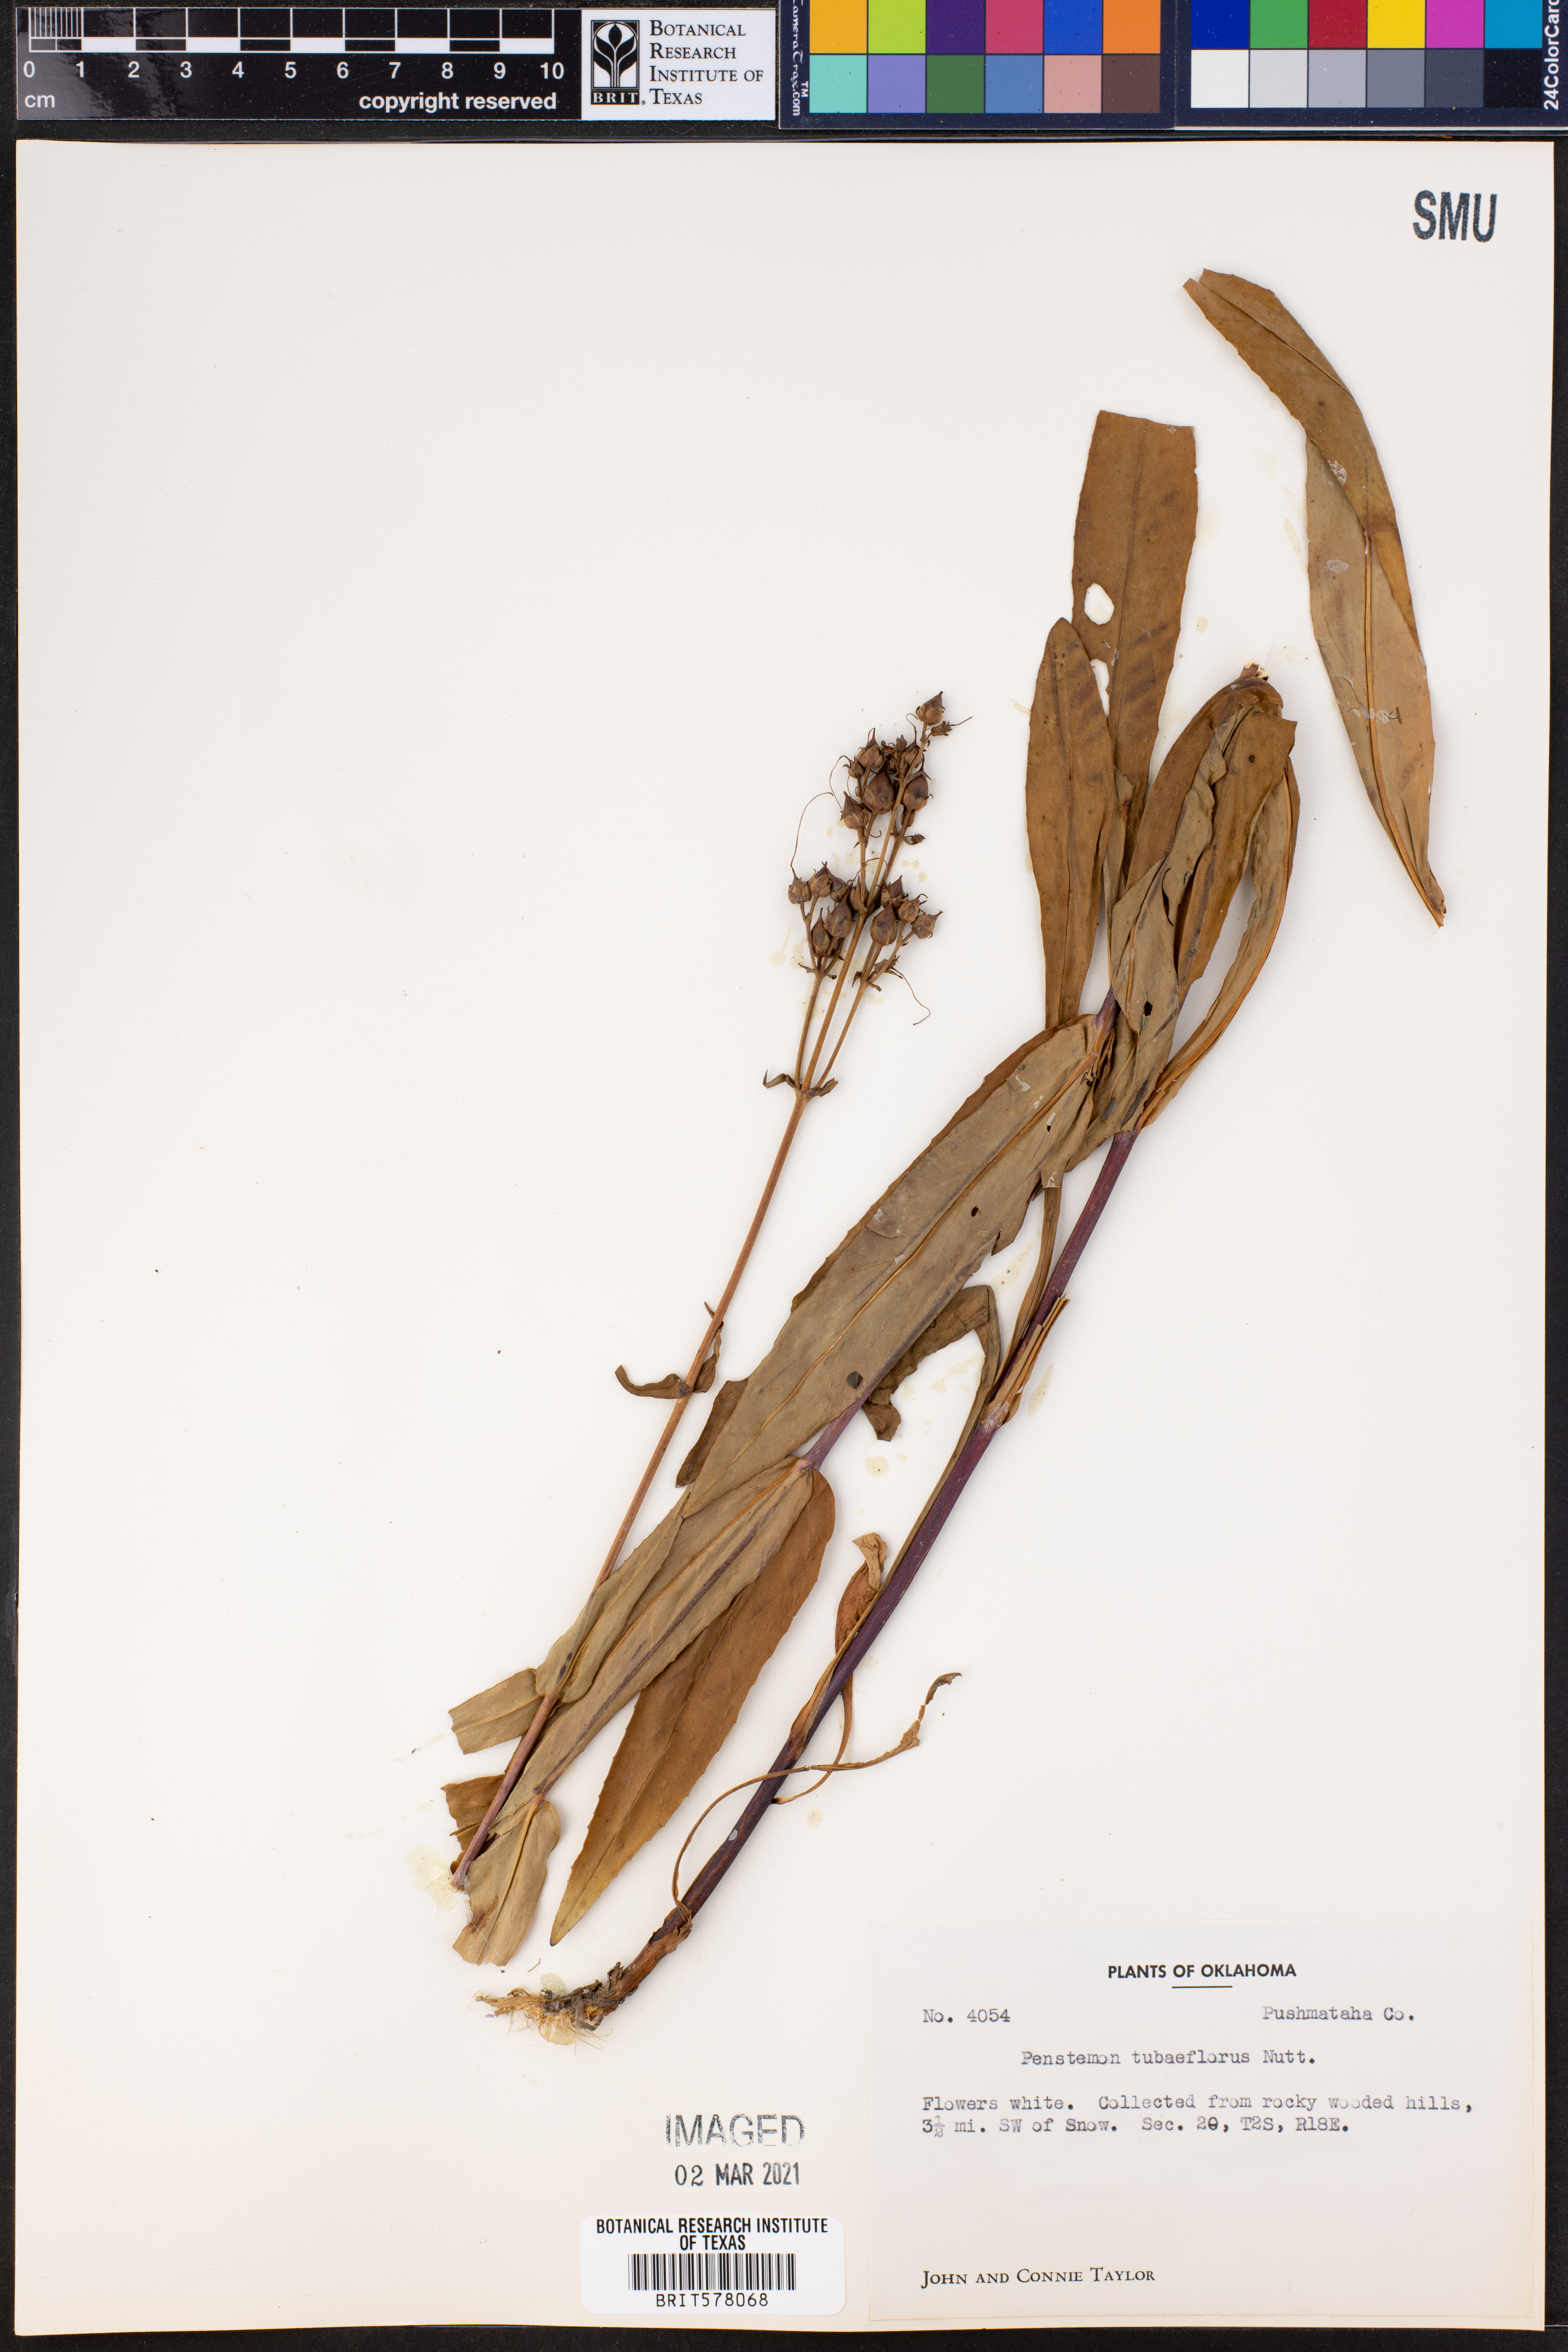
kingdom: Plantae
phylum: Tracheophyta
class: Magnoliopsida
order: Lamiales
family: Plantaginaceae
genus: Penstemon
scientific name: Penstemon tubaeflorus
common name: White wand beardtongue
